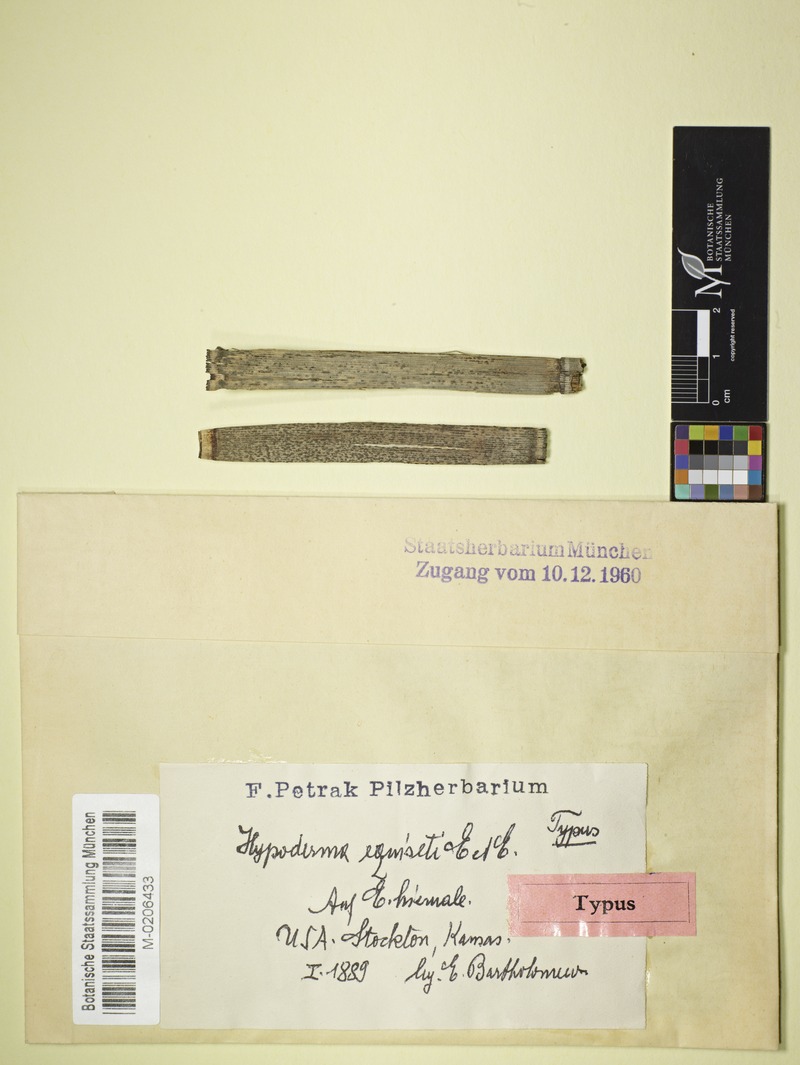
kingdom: Fungi
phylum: Ascomycota
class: Leotiomycetes
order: Rhytismatales
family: Rhytismataceae
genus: Hypoderma
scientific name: Hypoderma
